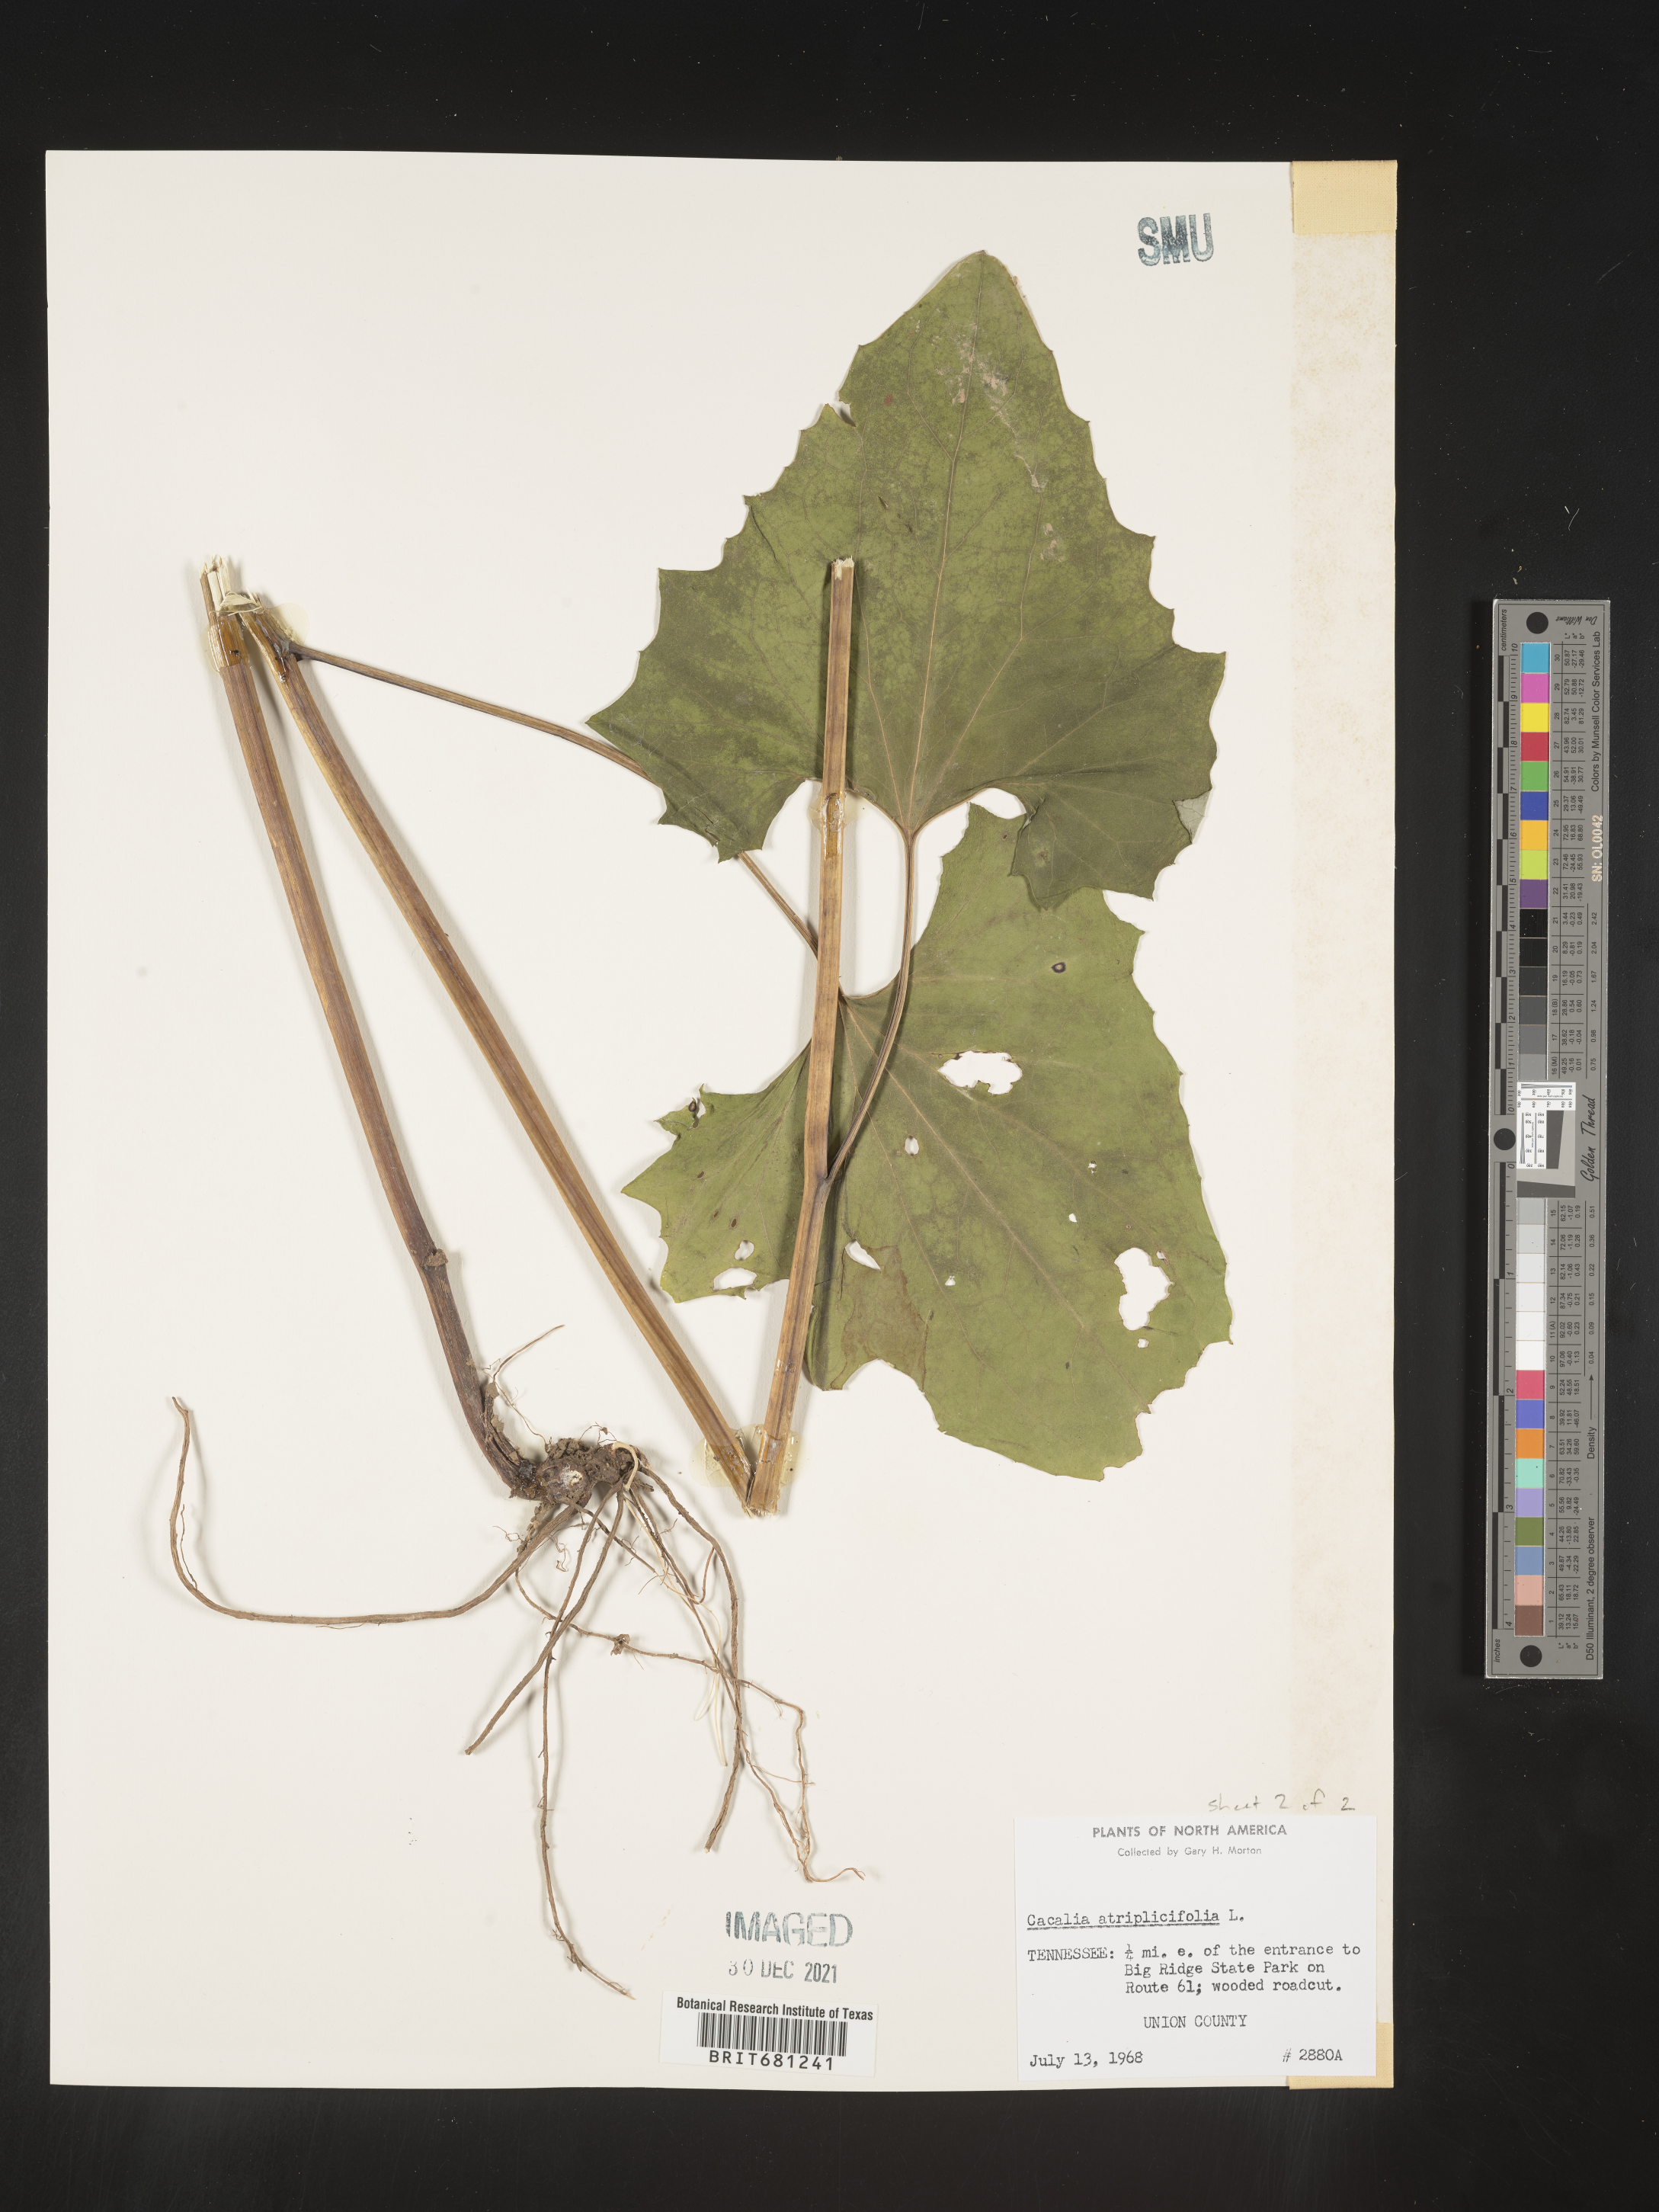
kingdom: Plantae
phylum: Tracheophyta
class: Magnoliopsida
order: Asterales
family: Asteraceae
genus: Arnoglossum
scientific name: Arnoglossum atriplicifolium
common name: Pale indian-plantain
